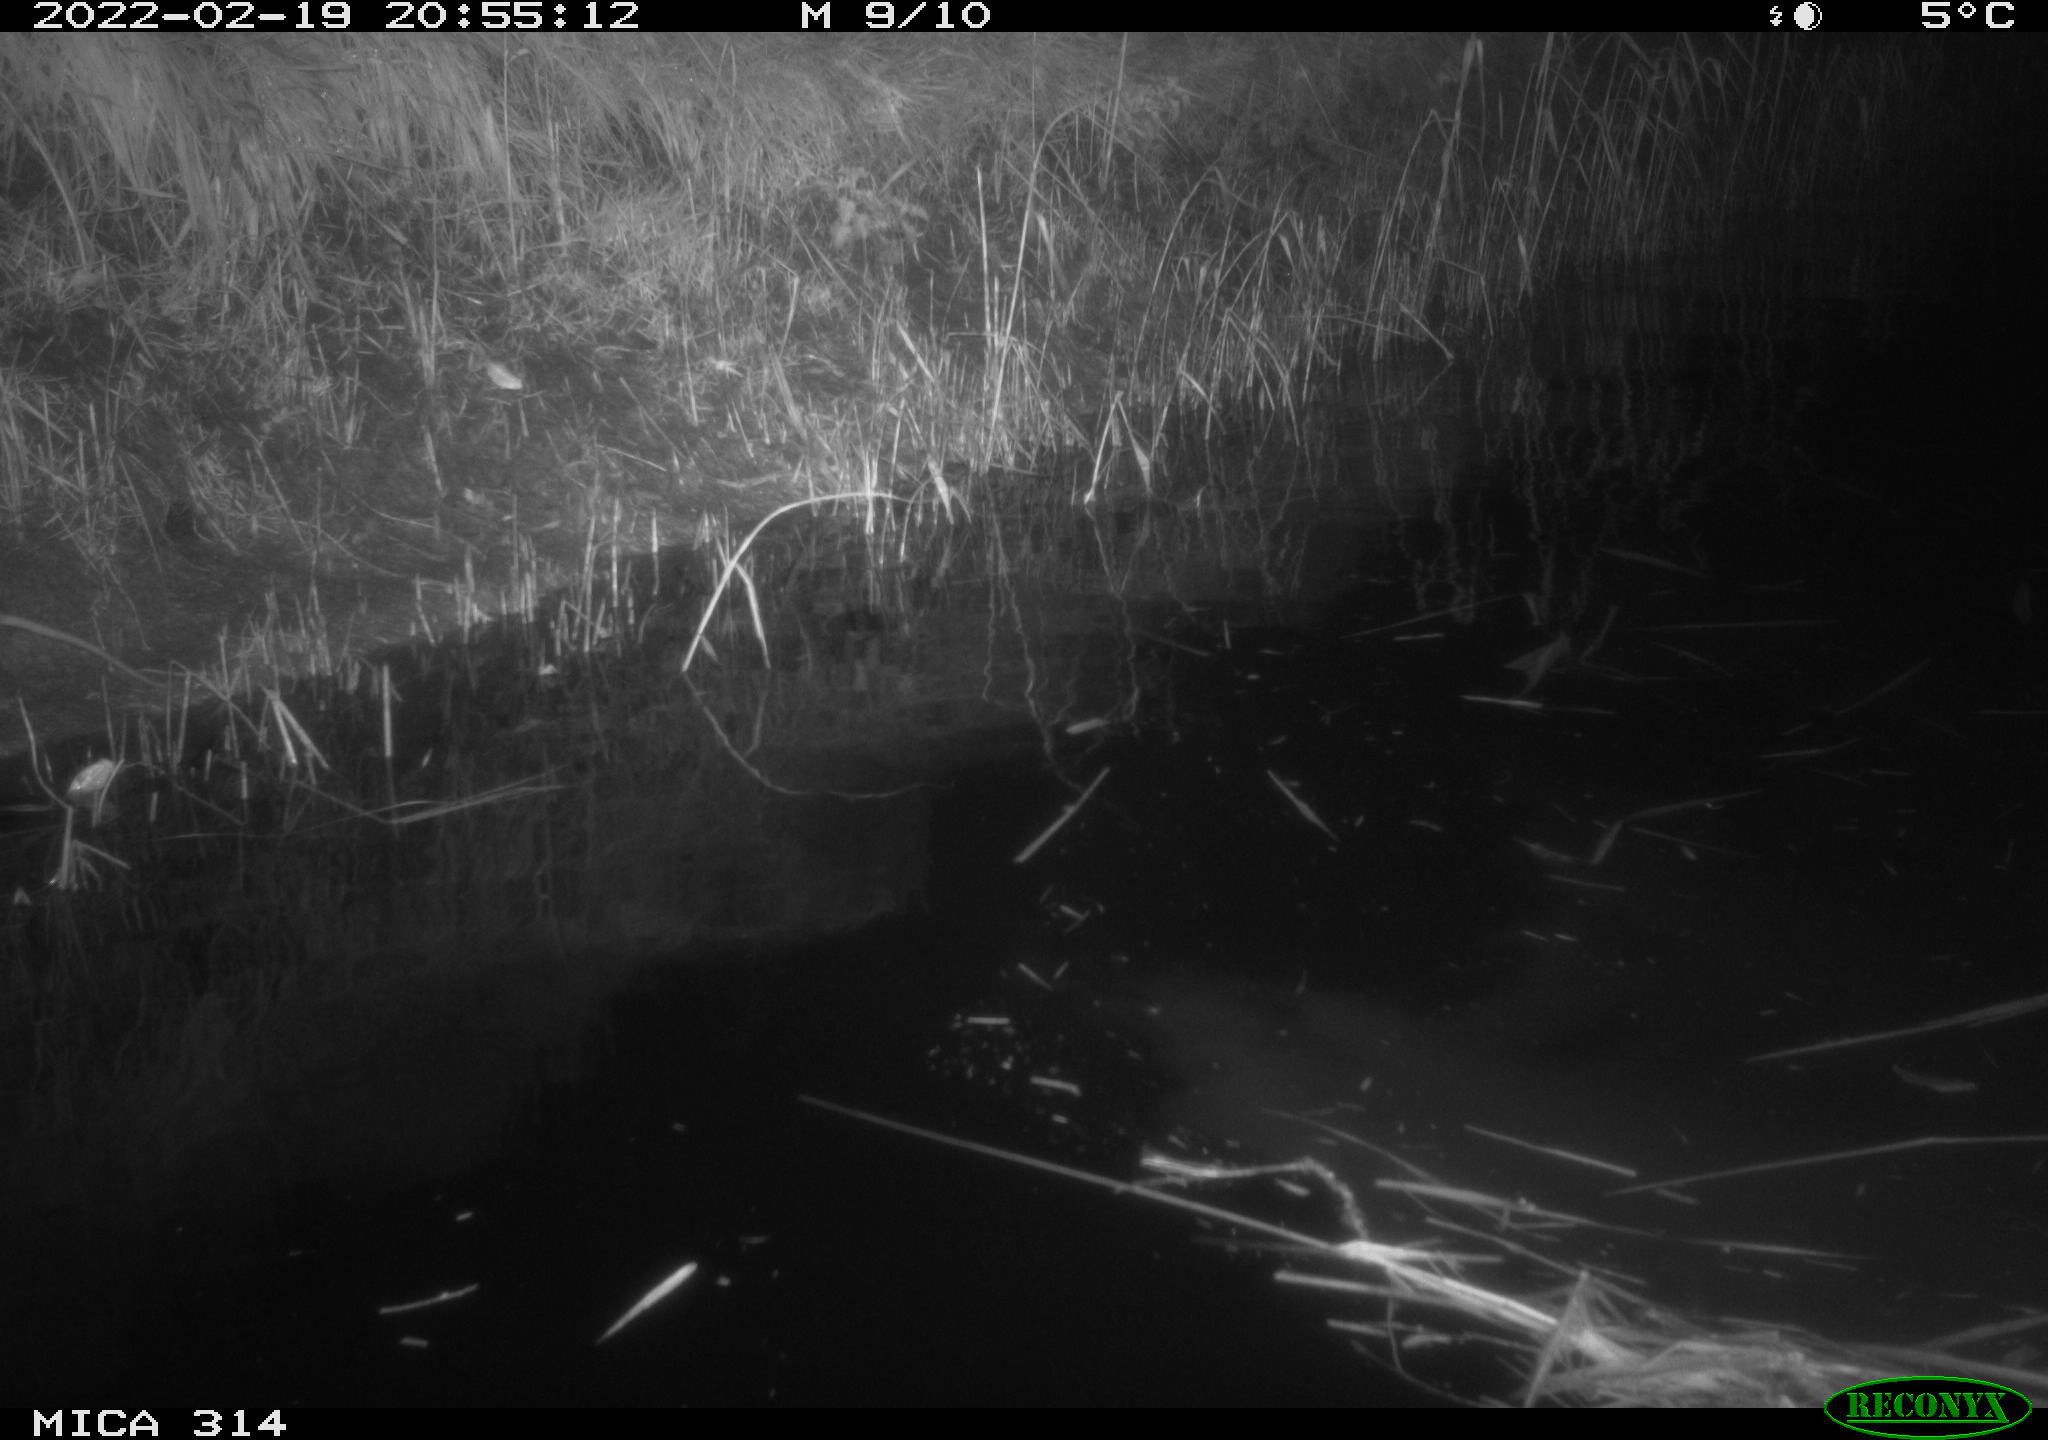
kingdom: Animalia
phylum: Chordata
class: Mammalia
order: Rodentia
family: Muridae
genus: Rattus
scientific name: Rattus norvegicus
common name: Brown rat
